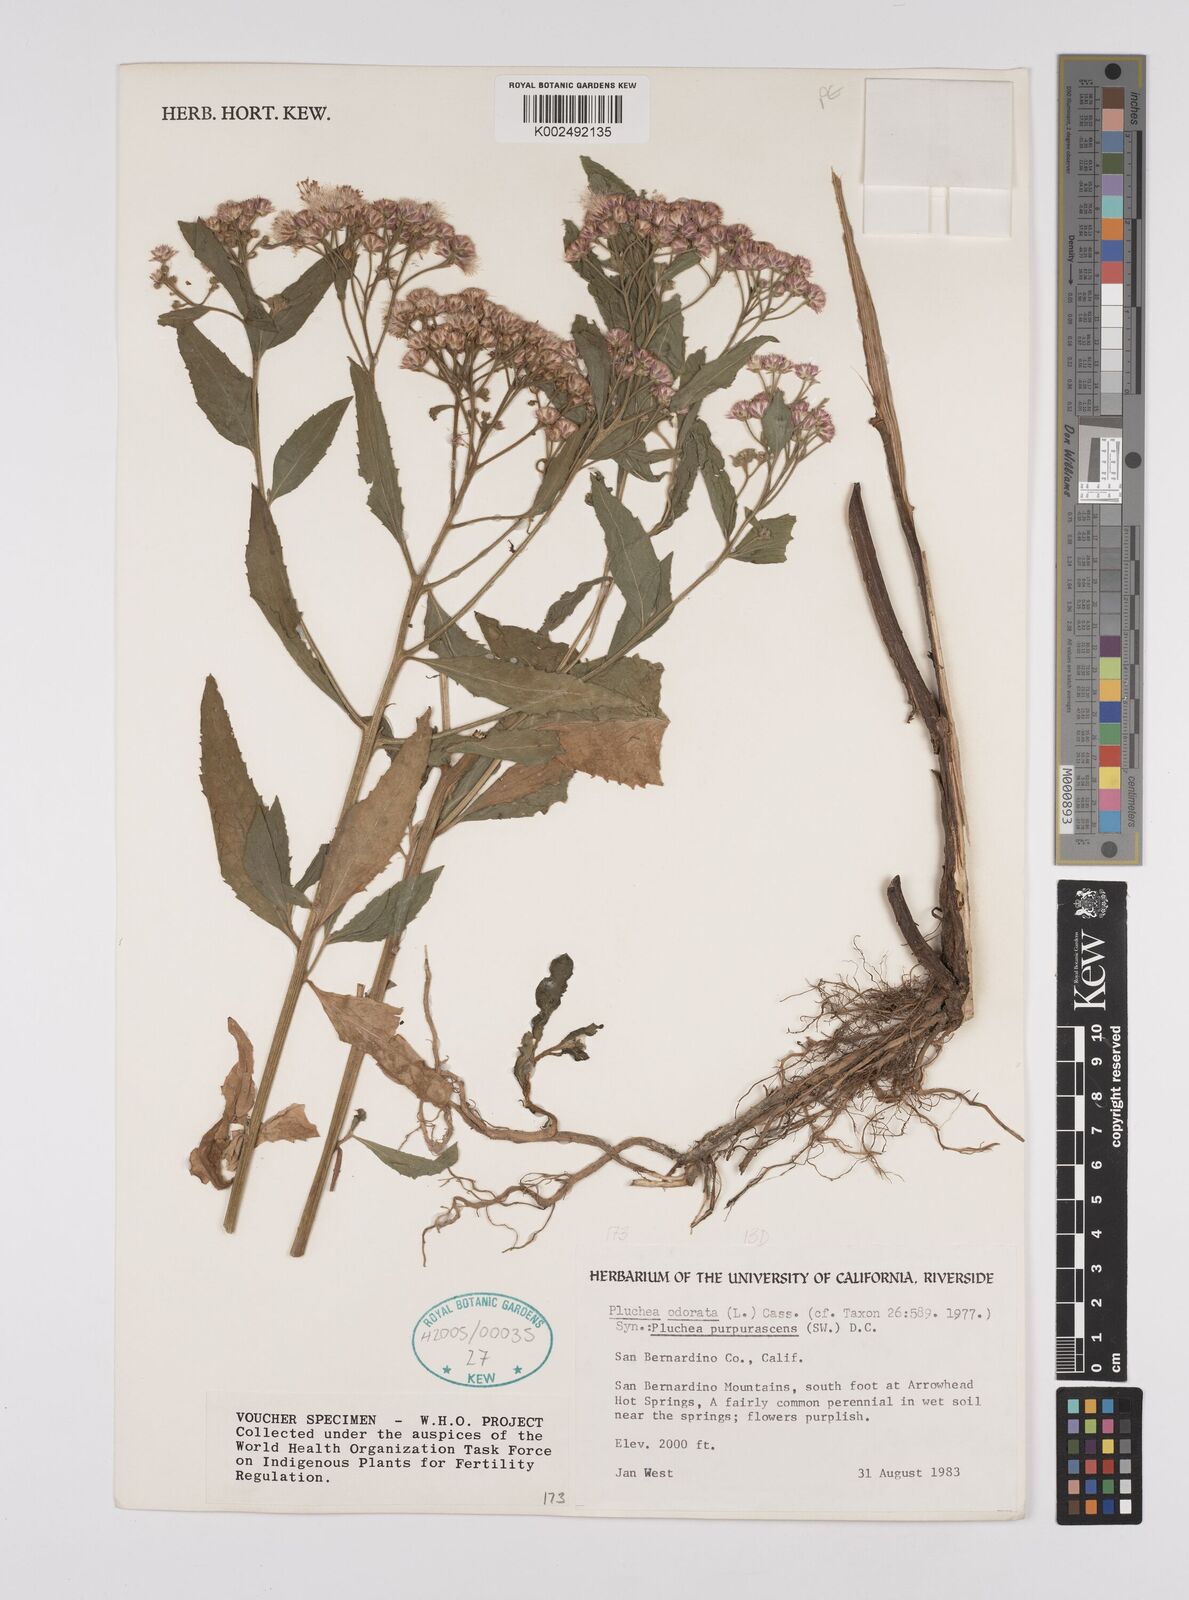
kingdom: Plantae
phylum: Tracheophyta
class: Magnoliopsida
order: Asterales
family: Asteraceae
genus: Pluchea
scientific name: Pluchea odorata
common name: Saltmarsh fleabane
